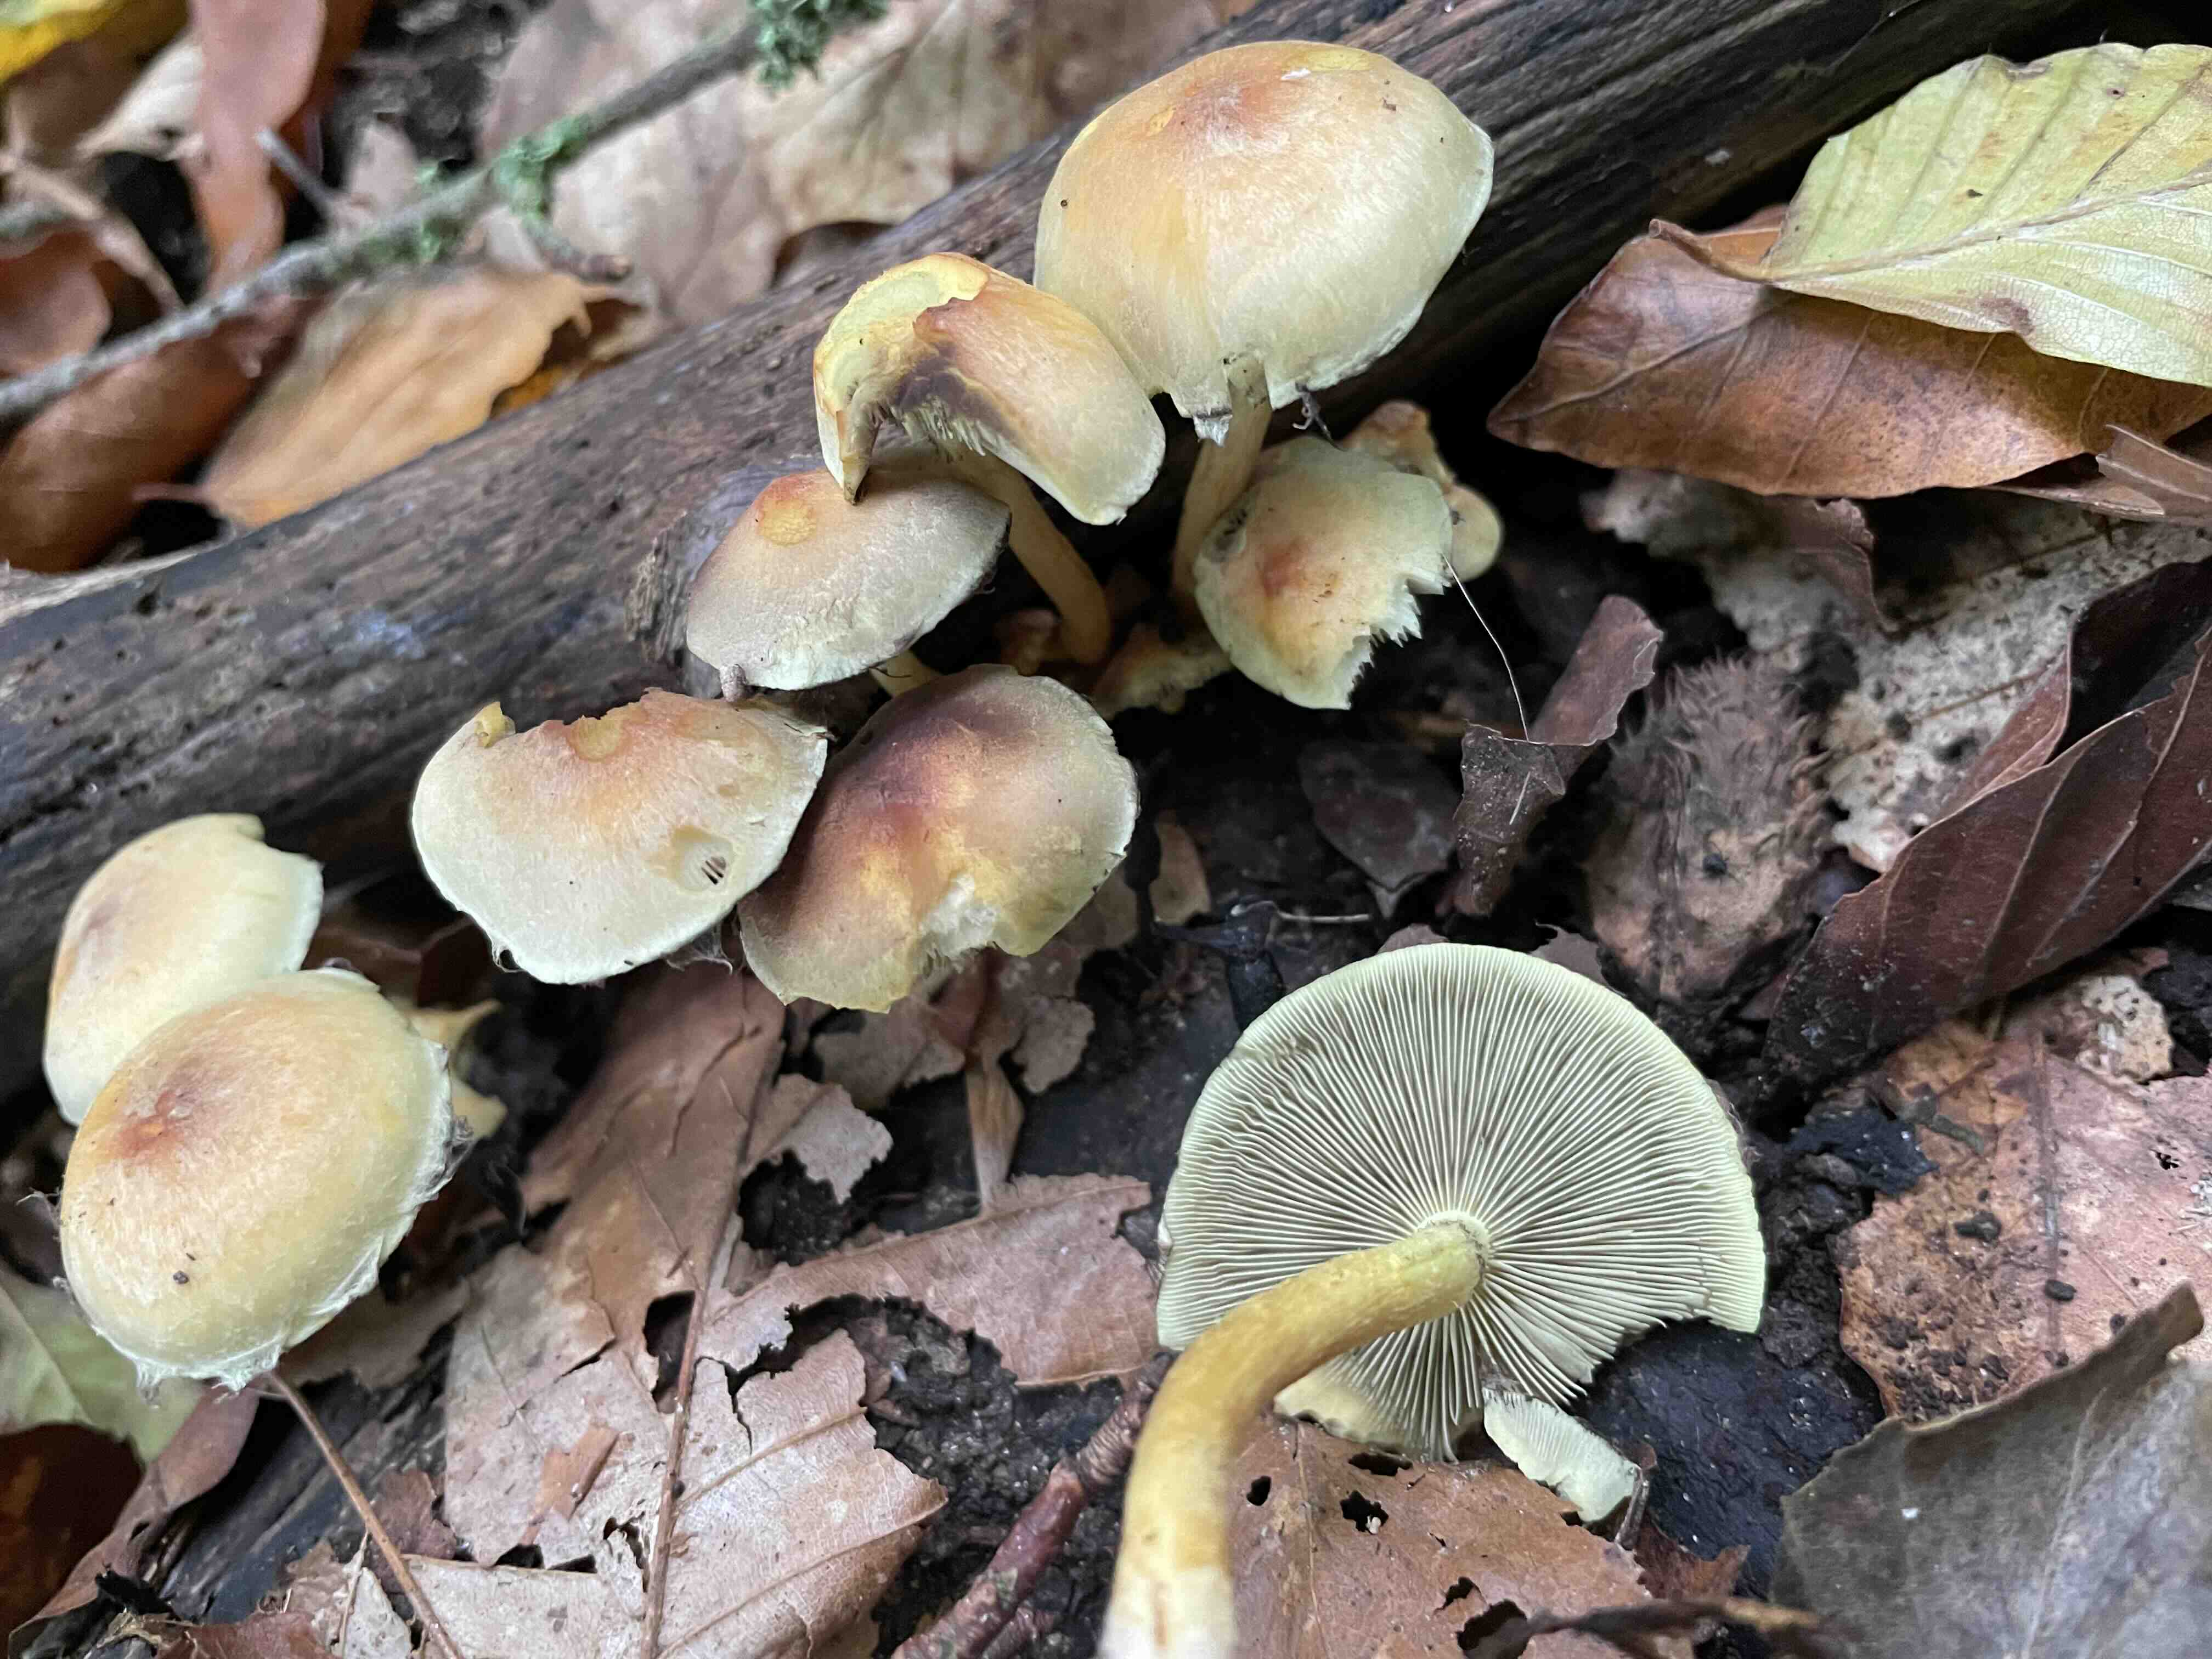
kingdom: Fungi
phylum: Basidiomycota
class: Agaricomycetes
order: Agaricales
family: Strophariaceae
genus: Hypholoma
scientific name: Hypholoma fasciculare
